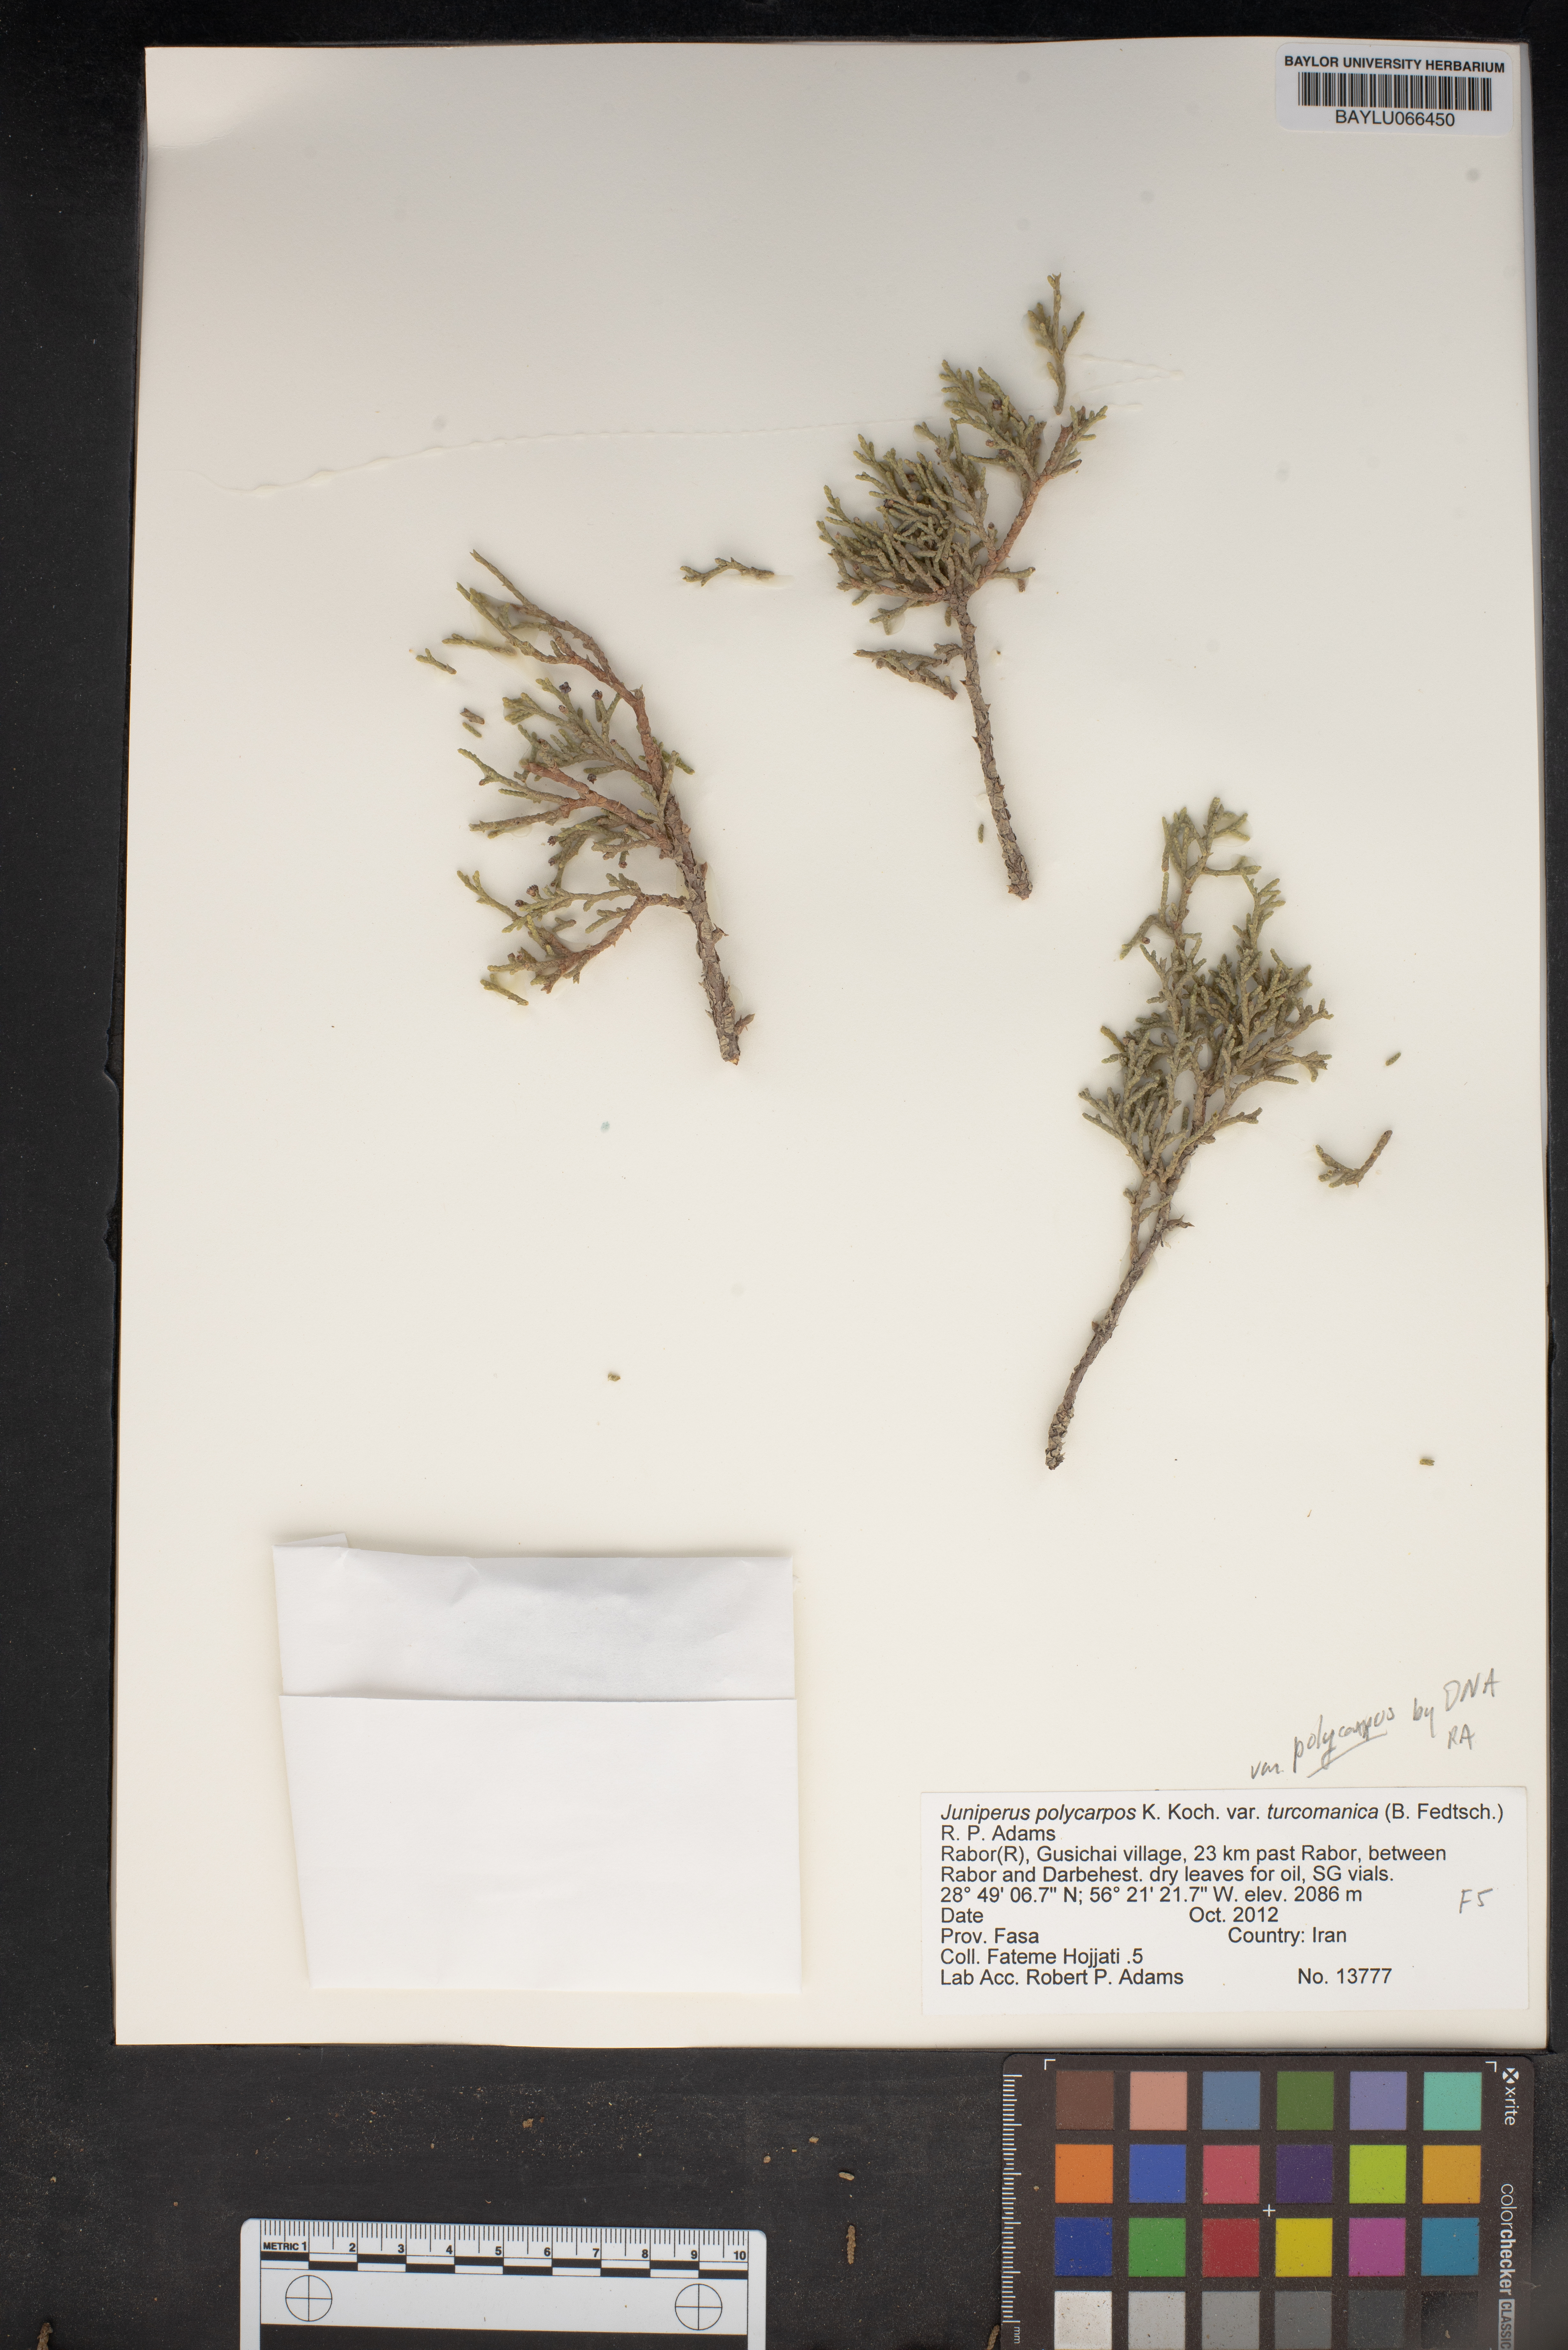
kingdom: Plantae
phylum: Tracheophyta
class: Pinopsida
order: Pinales
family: Cupressaceae
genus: Juniperus
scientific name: Juniperus excelsa
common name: Crimean juniper
